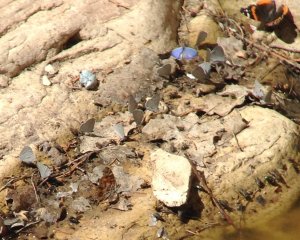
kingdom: Animalia
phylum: Arthropoda
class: Insecta
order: Lepidoptera
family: Lycaenidae
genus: Celastrina
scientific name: Celastrina ladon
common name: Spring Azure
